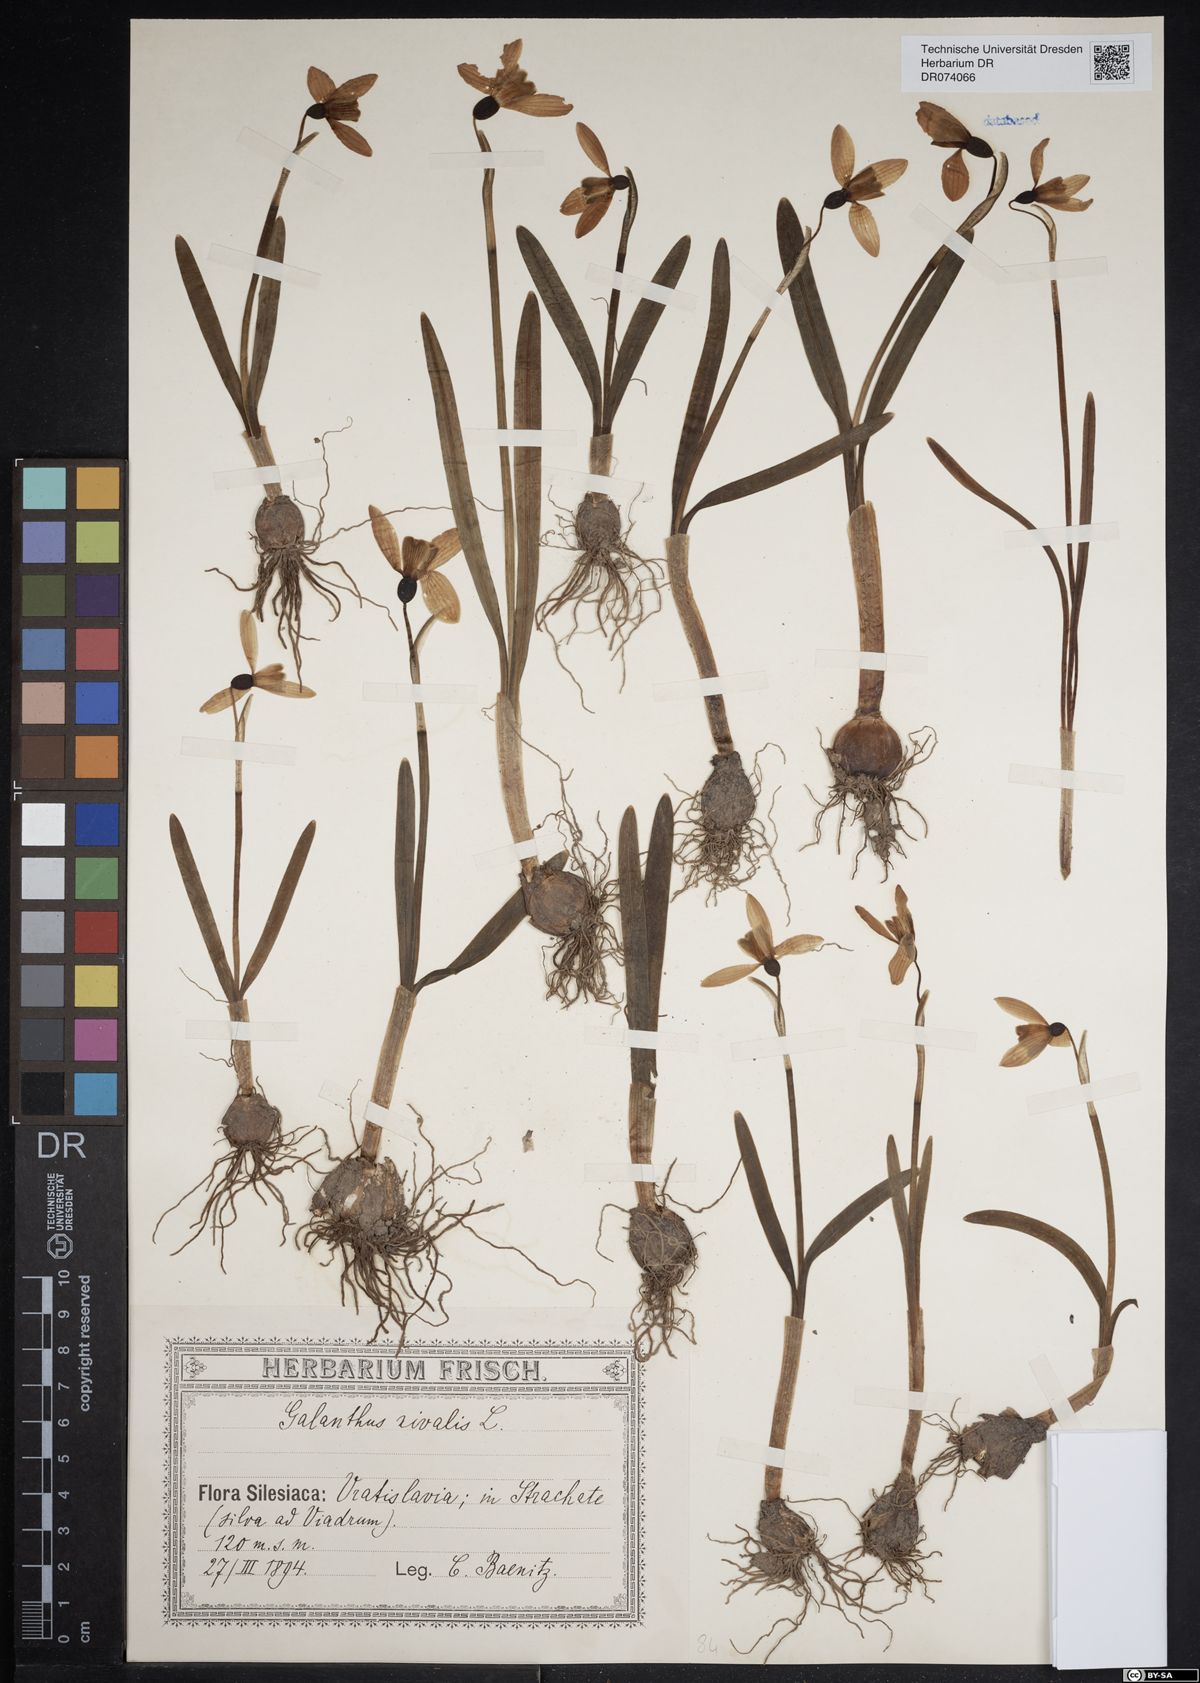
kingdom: Plantae
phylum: Tracheophyta
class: Liliopsida
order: Asparagales
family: Amaryllidaceae
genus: Galanthus
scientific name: Galanthus nivalis
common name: Snowdrop
